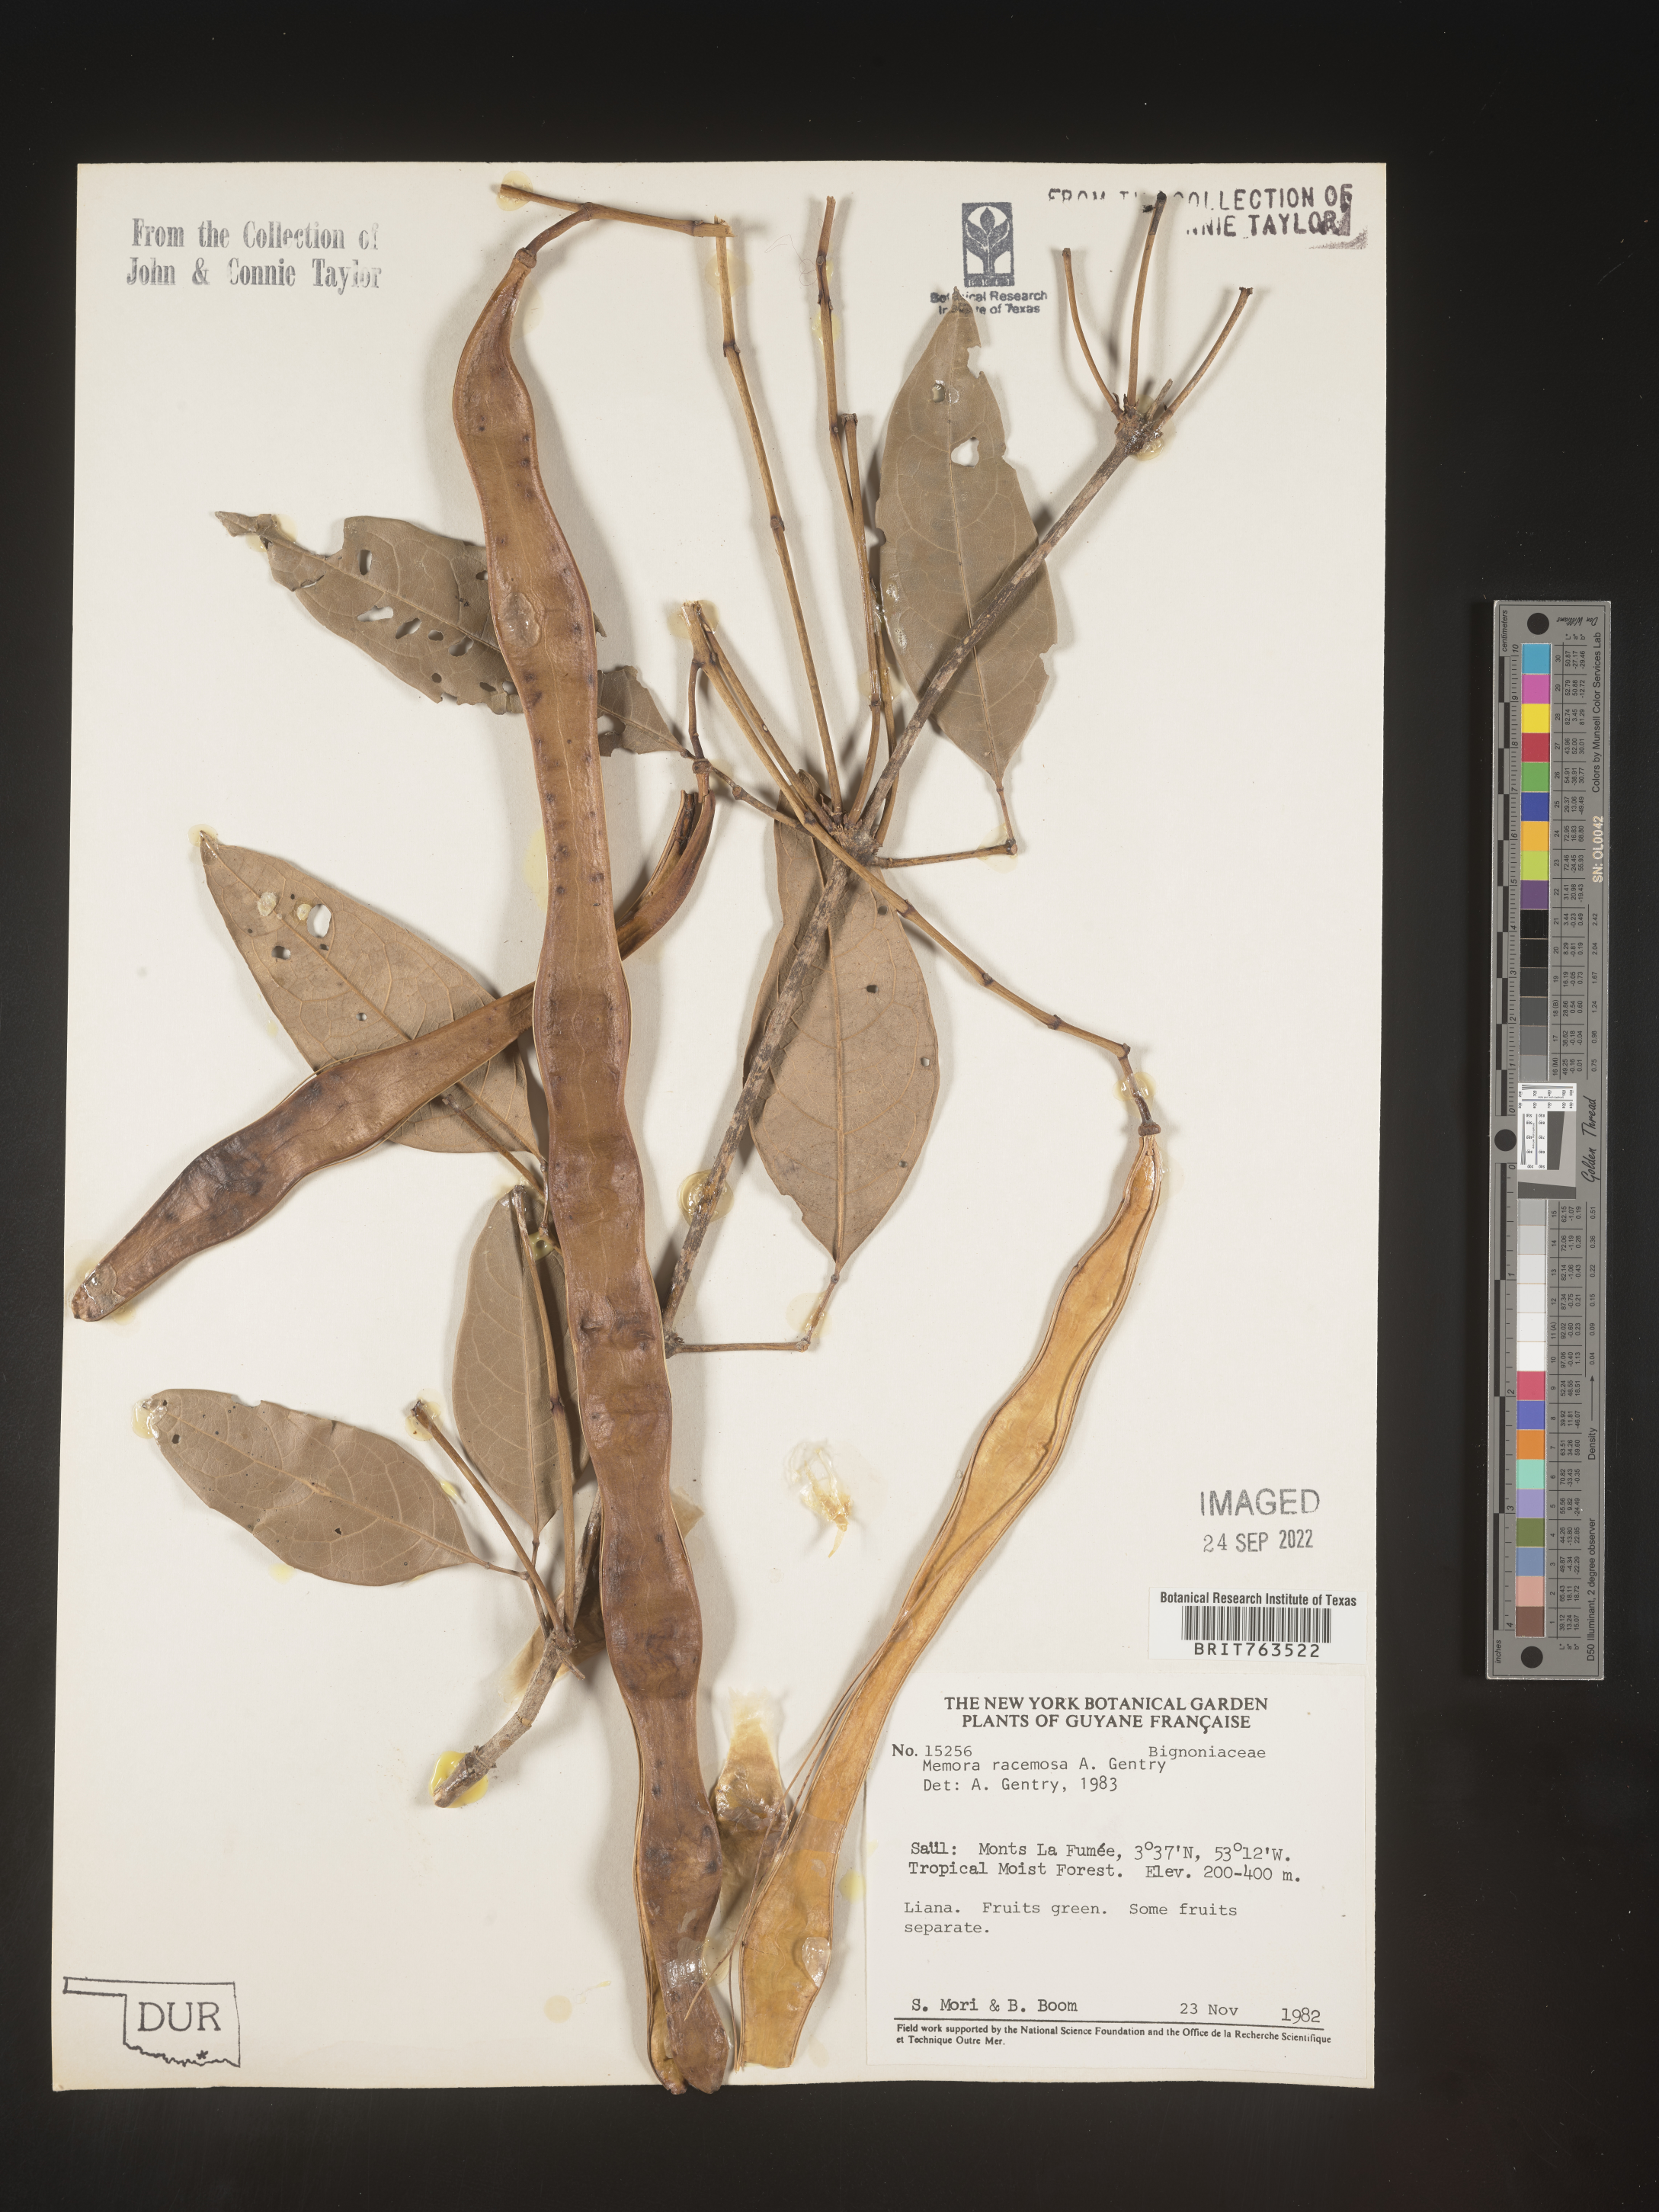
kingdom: Plantae
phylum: Tracheophyta
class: Magnoliopsida
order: Lamiales
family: Bignoniaceae
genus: Adenocalymma
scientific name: Adenocalymma
